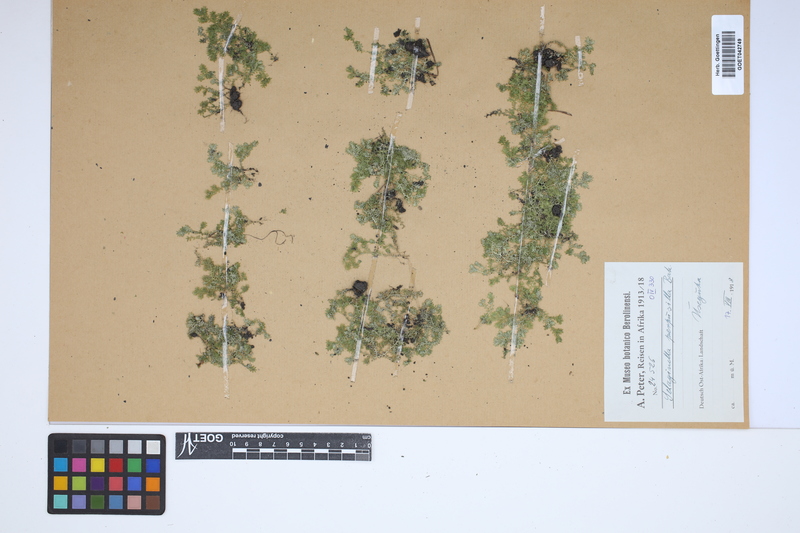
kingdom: Plantae
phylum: Tracheophyta
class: Lycopodiopsida
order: Selaginellales
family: Selaginellaceae
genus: Selaginella
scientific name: Selaginella perpusilla
